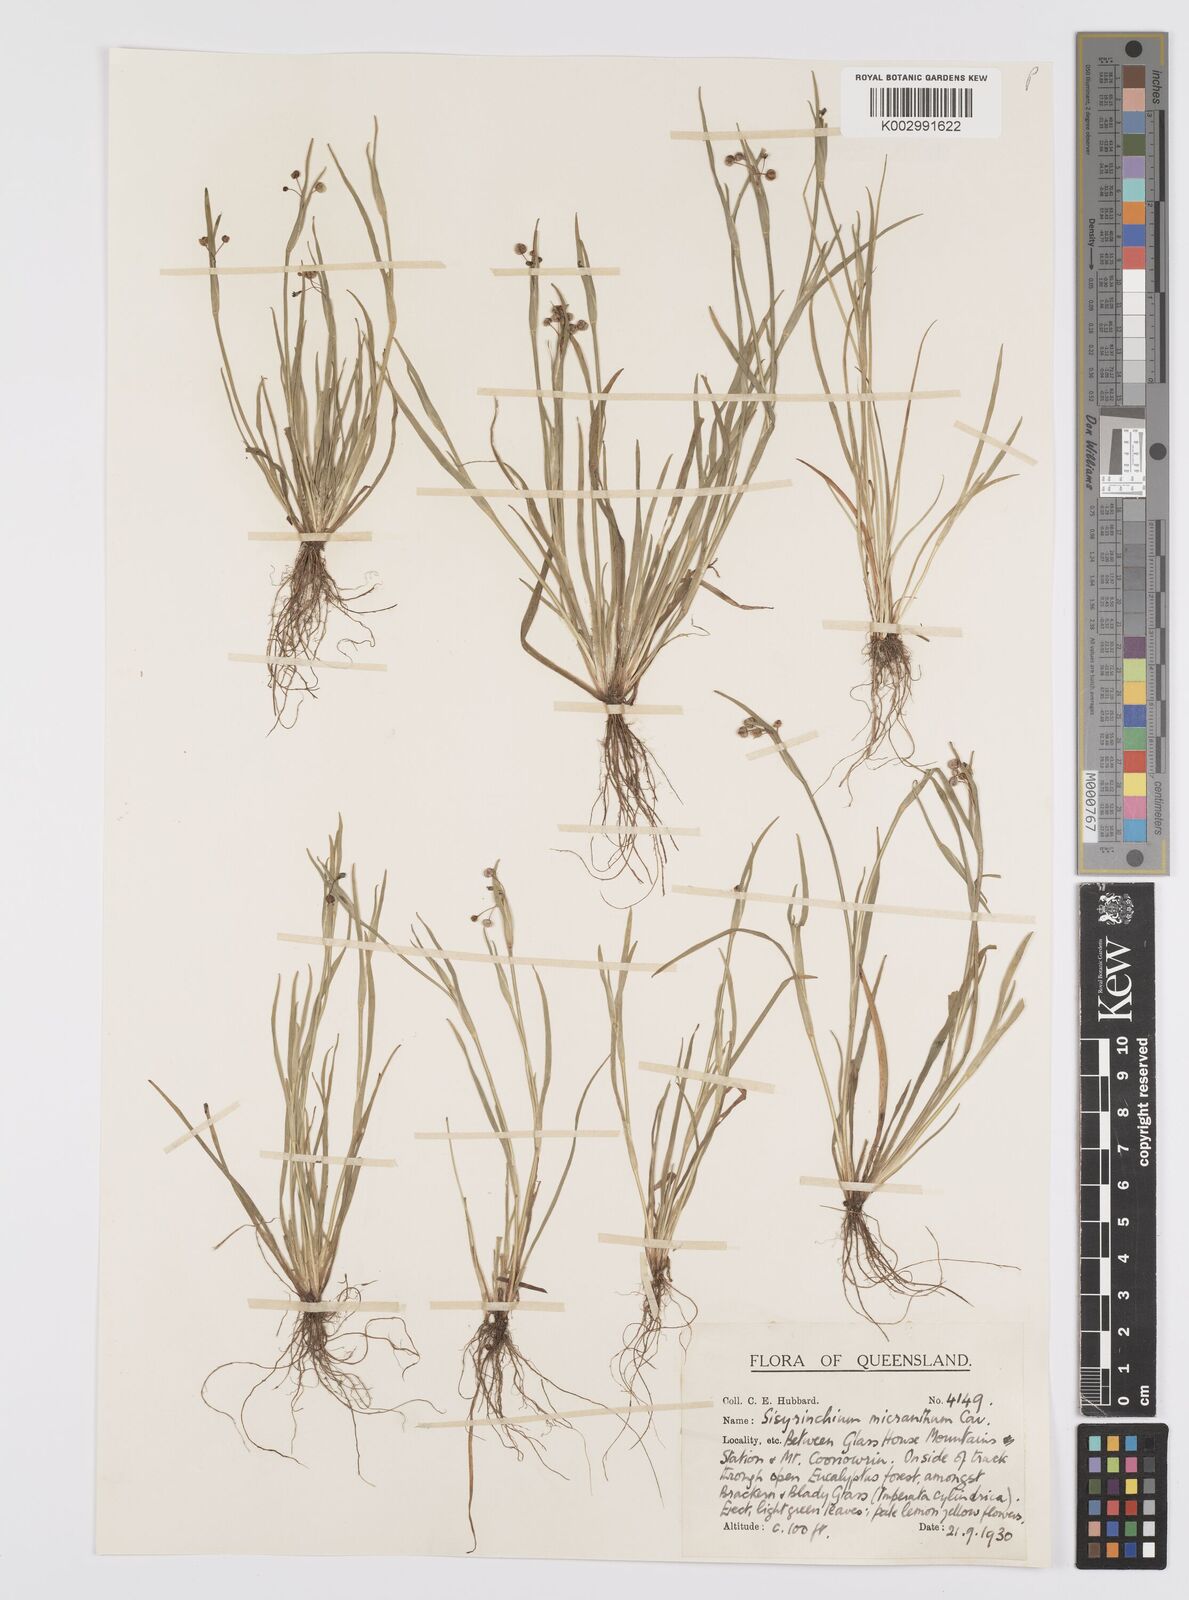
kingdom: Plantae
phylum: Tracheophyta
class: Liliopsida
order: Asparagales
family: Iridaceae
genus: Sisyrinchium
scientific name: Sisyrinchium micranthum
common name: Bermuda pigroot
